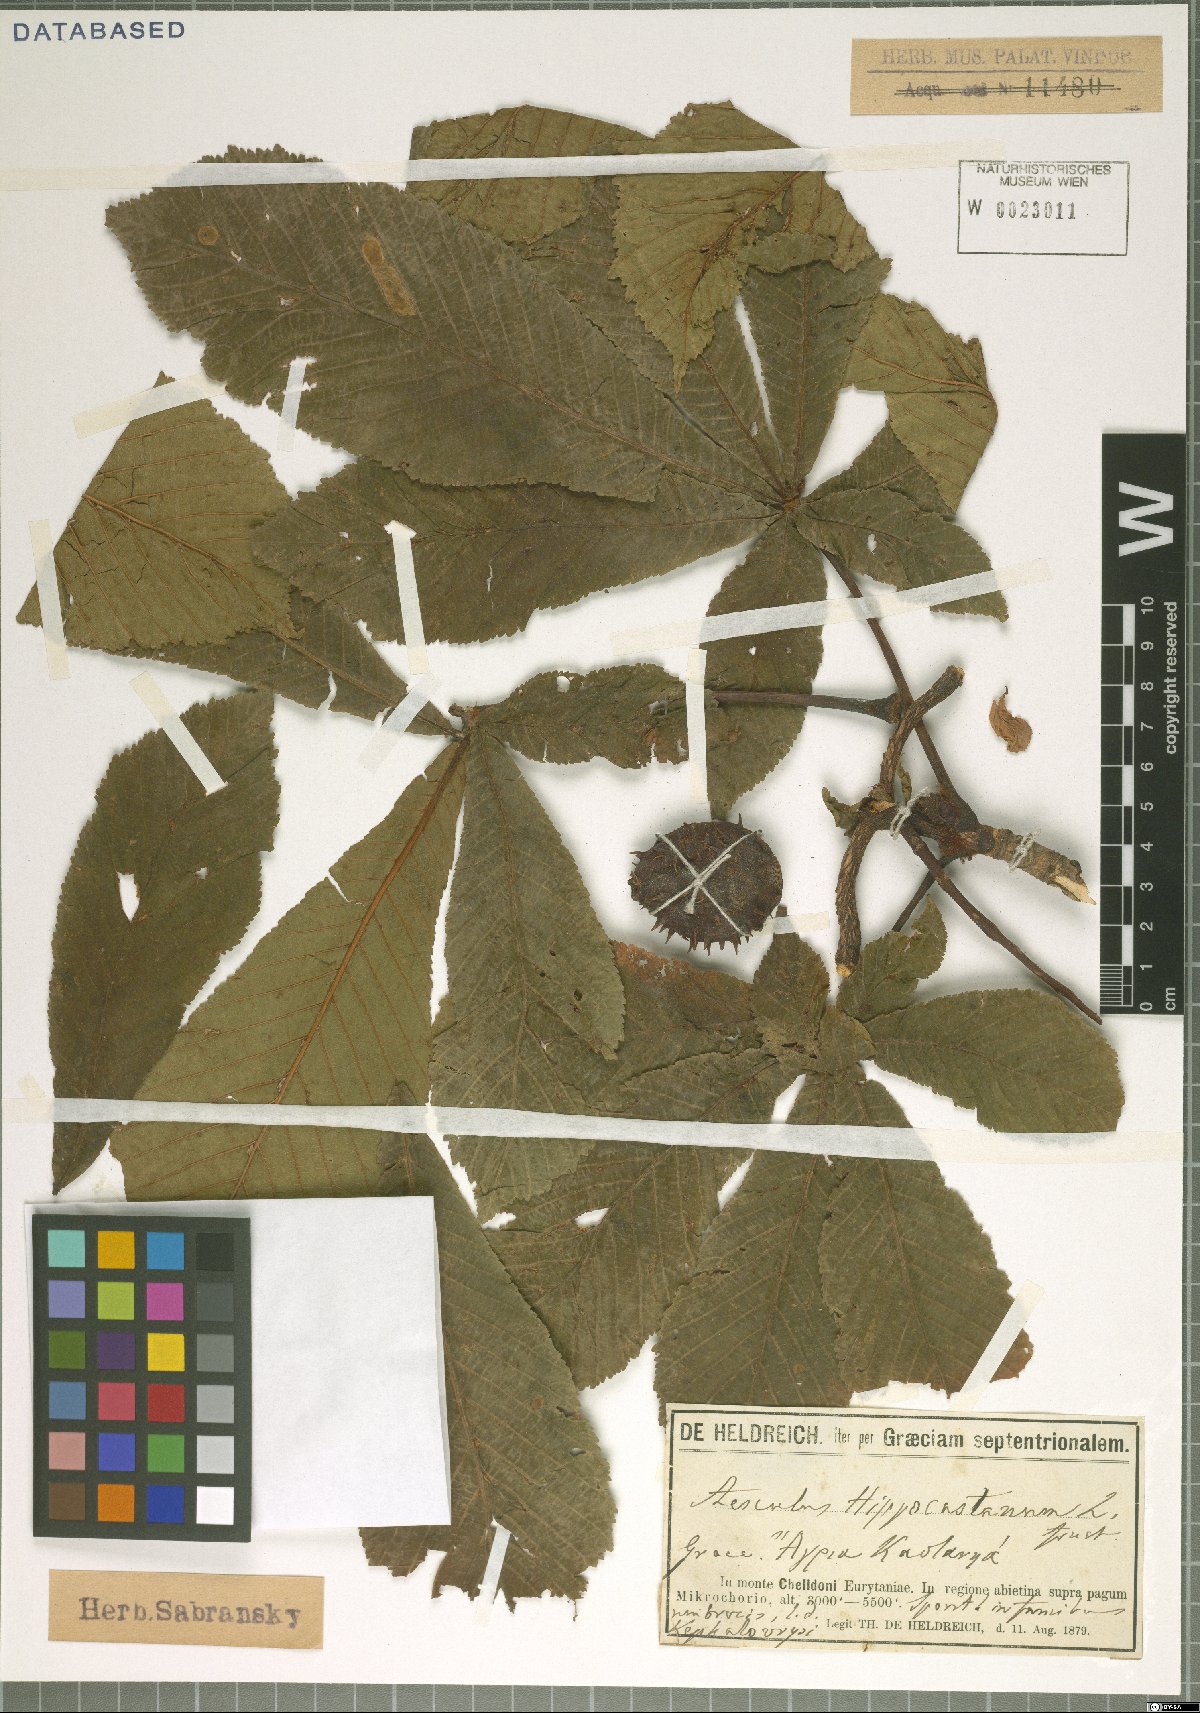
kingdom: Plantae
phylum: Tracheophyta
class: Magnoliopsida
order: Sapindales
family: Sapindaceae
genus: Aesculus
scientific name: Aesculus hippocastanum
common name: Horse-chestnut
